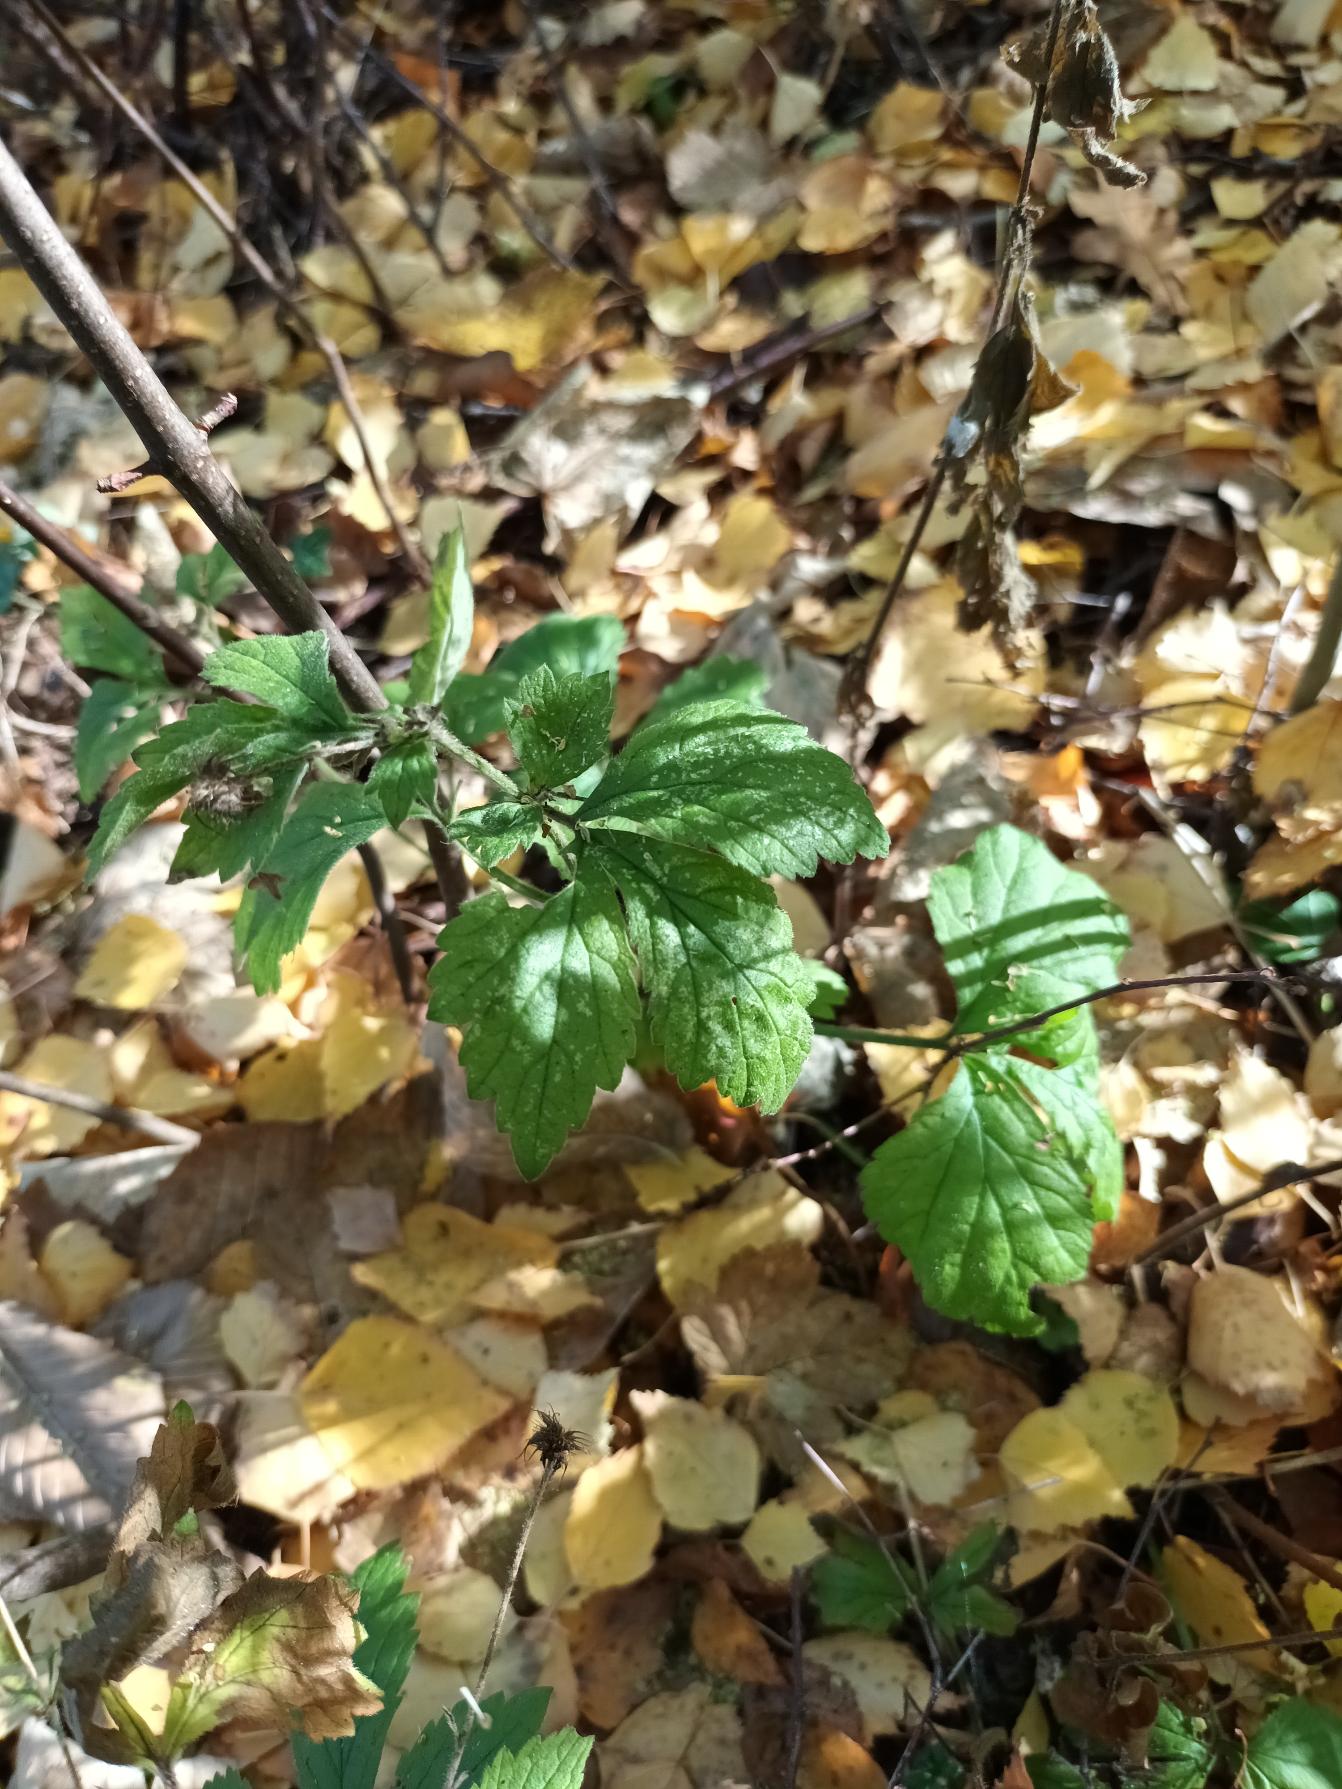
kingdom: Plantae
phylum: Tracheophyta
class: Magnoliopsida
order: Rosales
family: Rosaceae
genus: Geum
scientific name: Geum urbanum
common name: Feber-nellikerod
